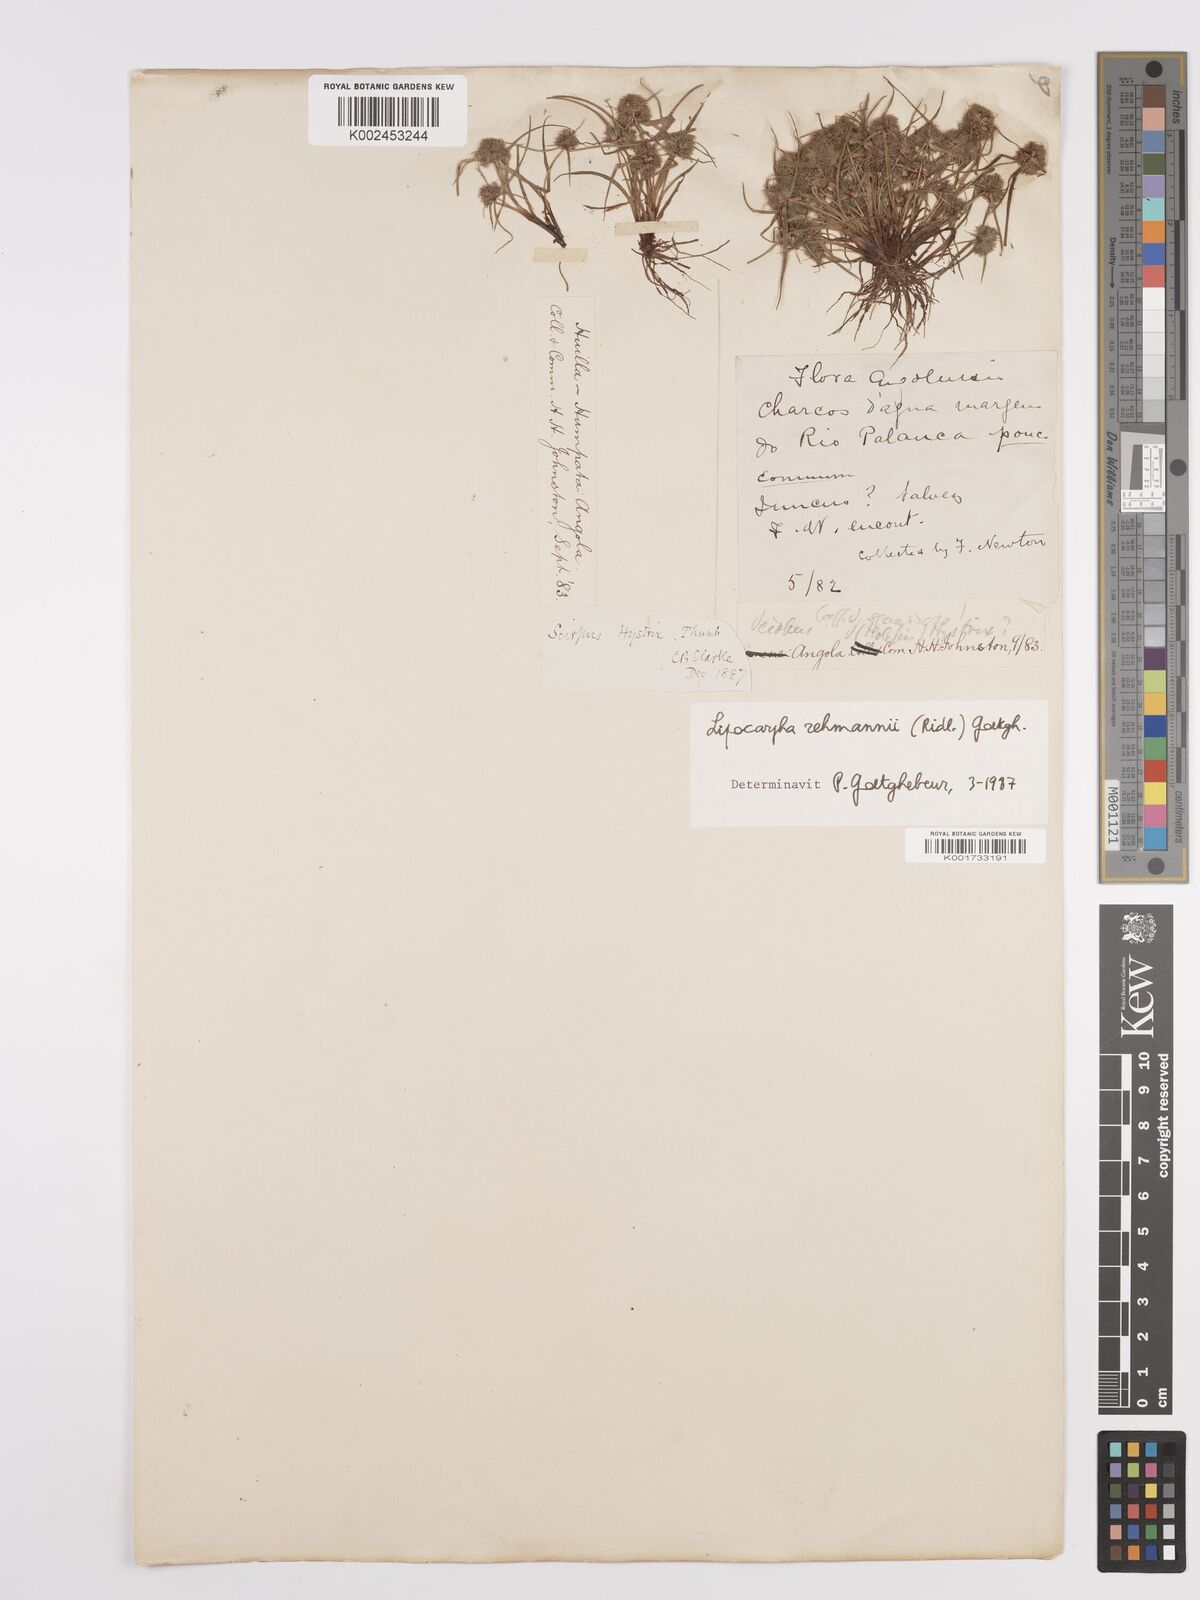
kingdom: Plantae
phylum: Tracheophyta
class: Liliopsida
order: Poales
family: Cyperaceae
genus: Cyperus
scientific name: Cyperus sanguinolentus
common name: Purpleglume flatsedge
